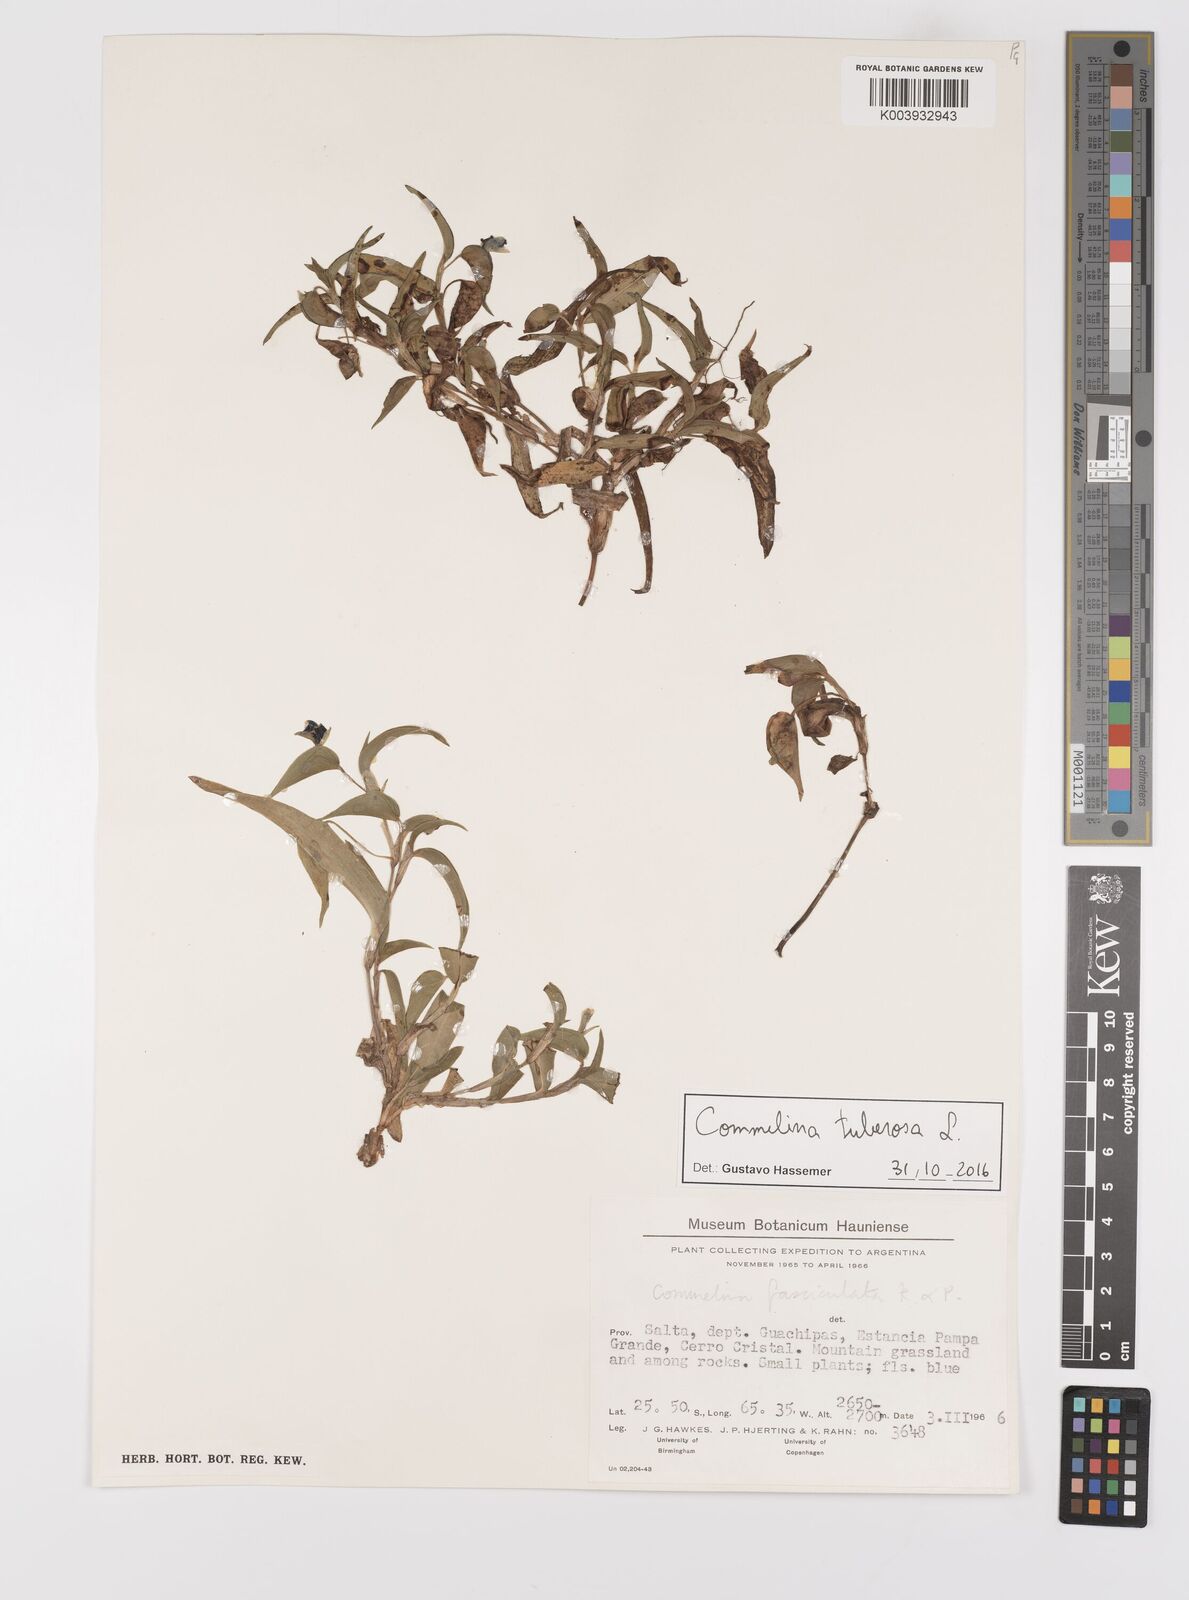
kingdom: Plantae
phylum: Tracheophyta
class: Liliopsida
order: Commelinales
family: Commelinaceae
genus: Commelina
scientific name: Commelina tuberosa
